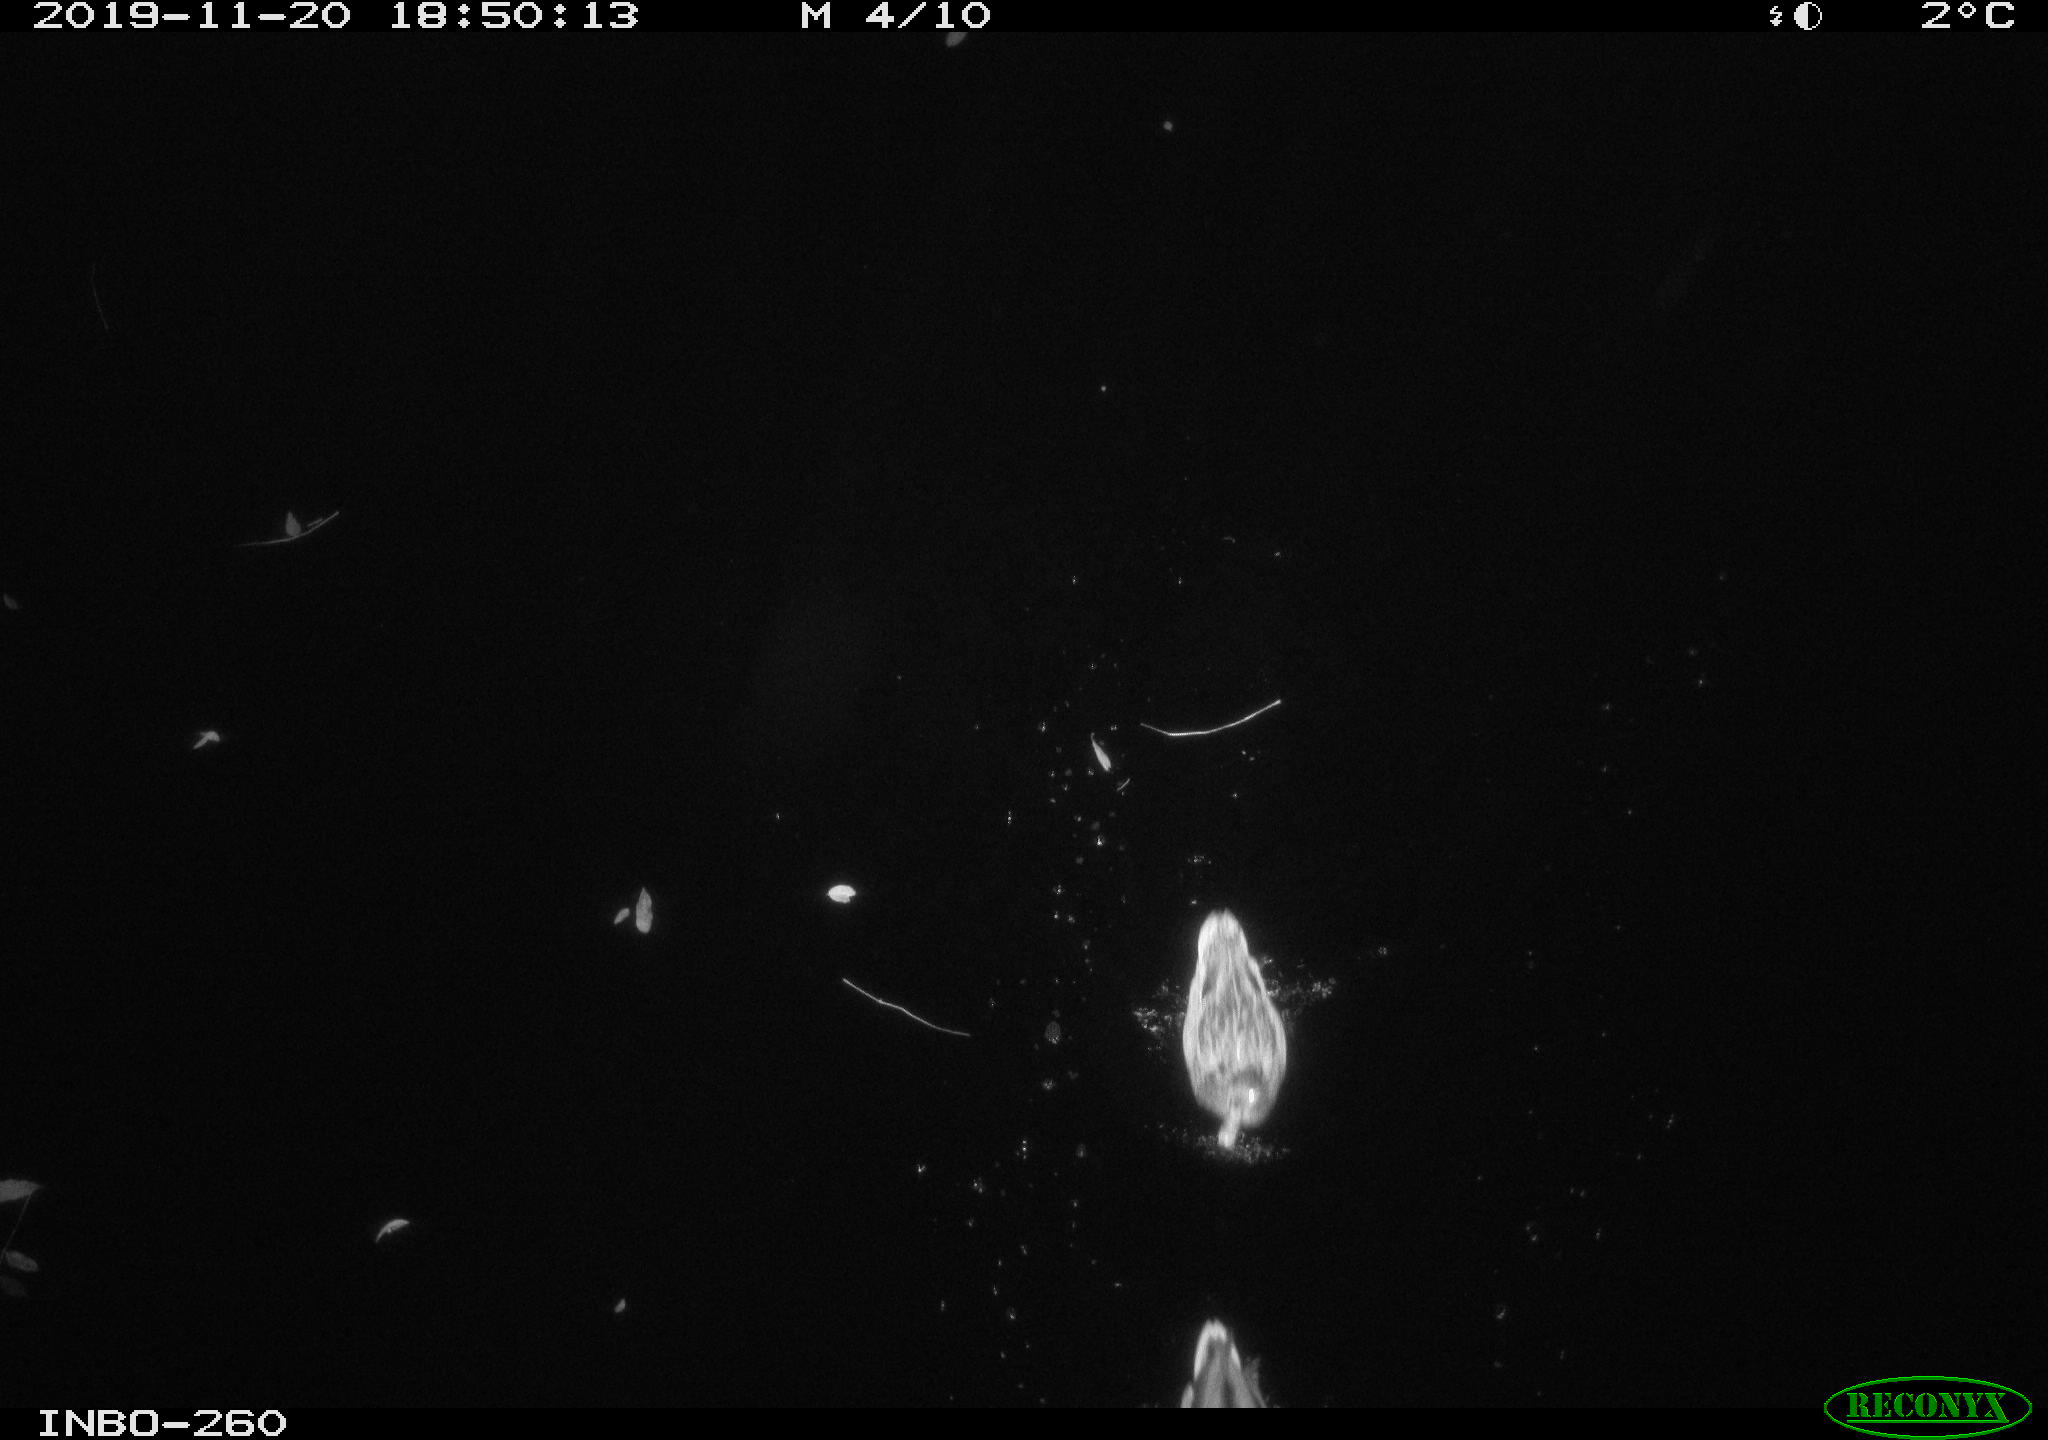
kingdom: Animalia
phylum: Chordata
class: Aves
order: Anseriformes
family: Anatidae
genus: Anas
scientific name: Anas platyrhynchos
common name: Mallard
